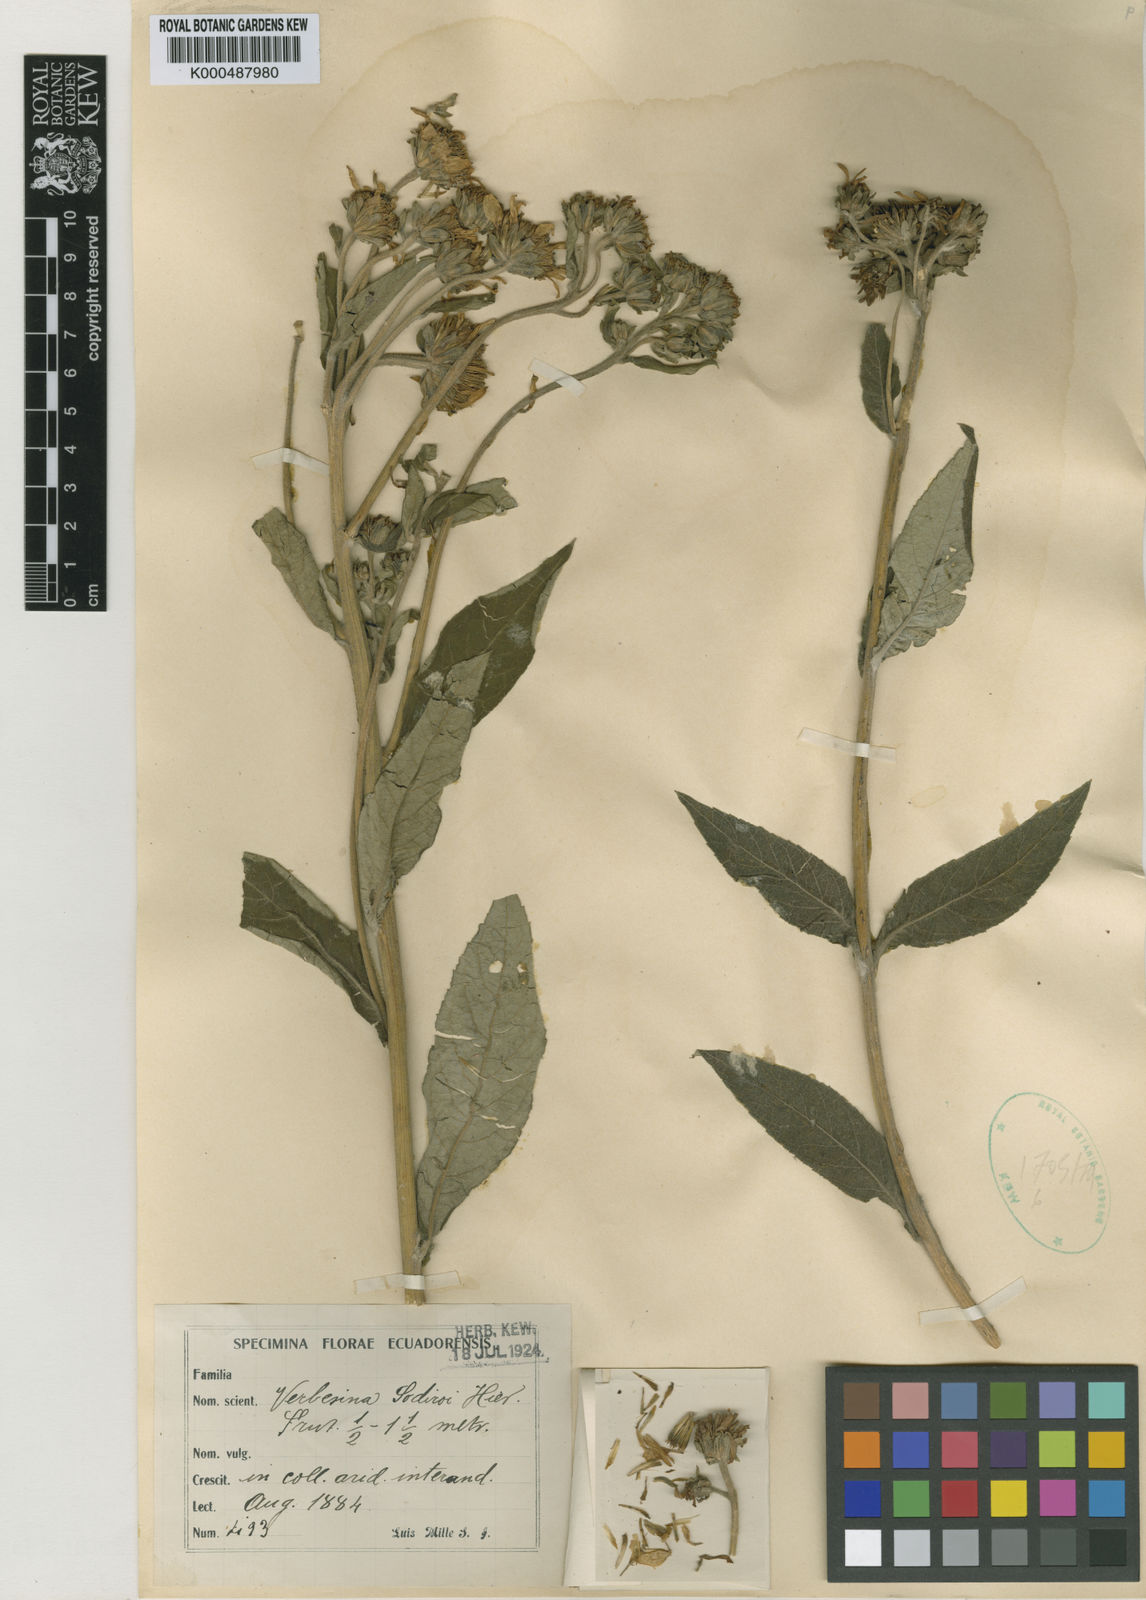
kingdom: Plantae
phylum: Tracheophyta
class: Magnoliopsida
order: Asterales
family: Asteraceae
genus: Verbesina
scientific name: Verbesina sodiroi
